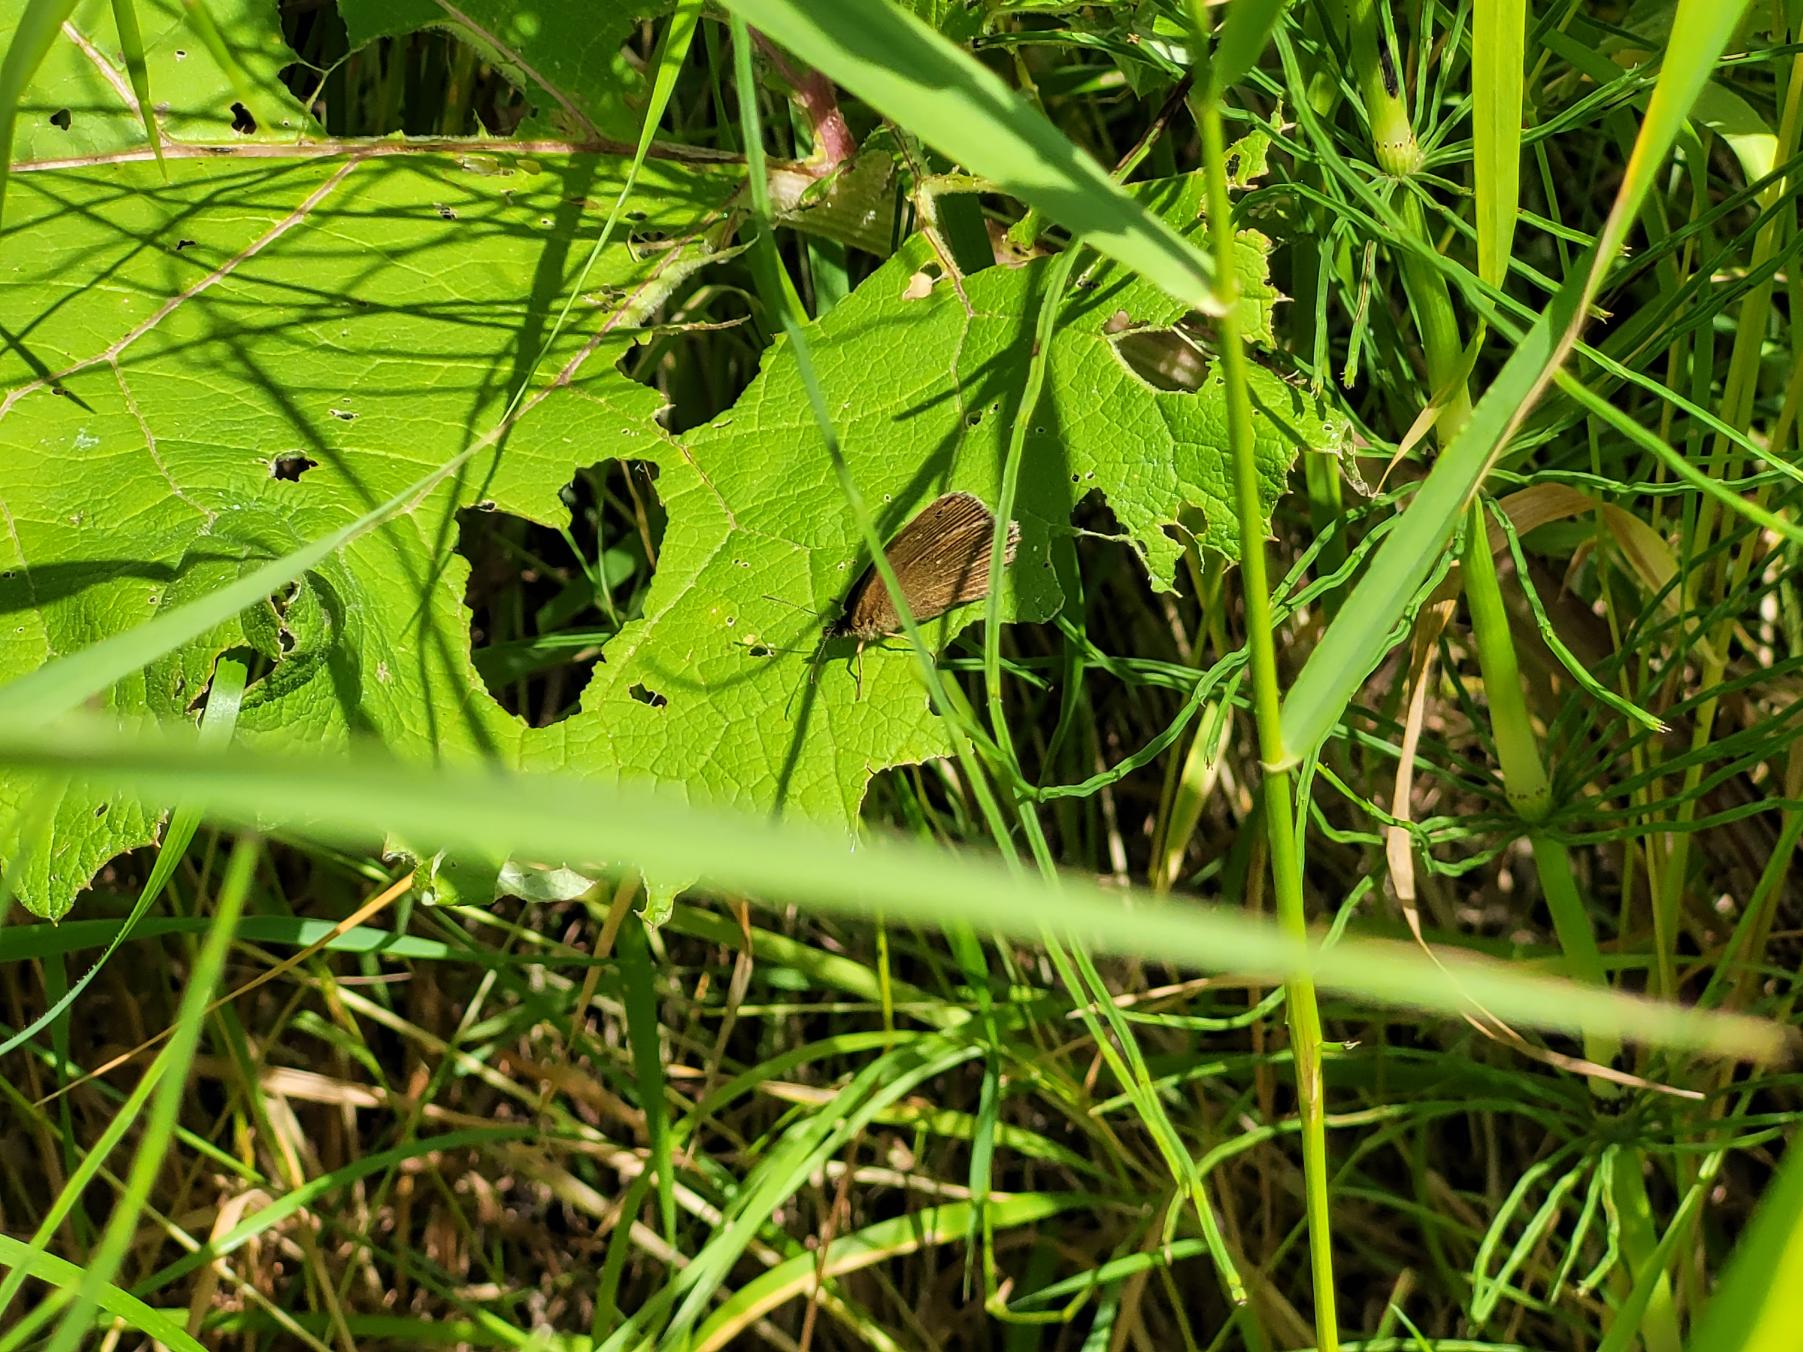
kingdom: Animalia
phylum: Arthropoda
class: Insecta
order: Lepidoptera
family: Nymphalidae
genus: Aphantopus
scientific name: Aphantopus hyperantus
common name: Engrandøje
